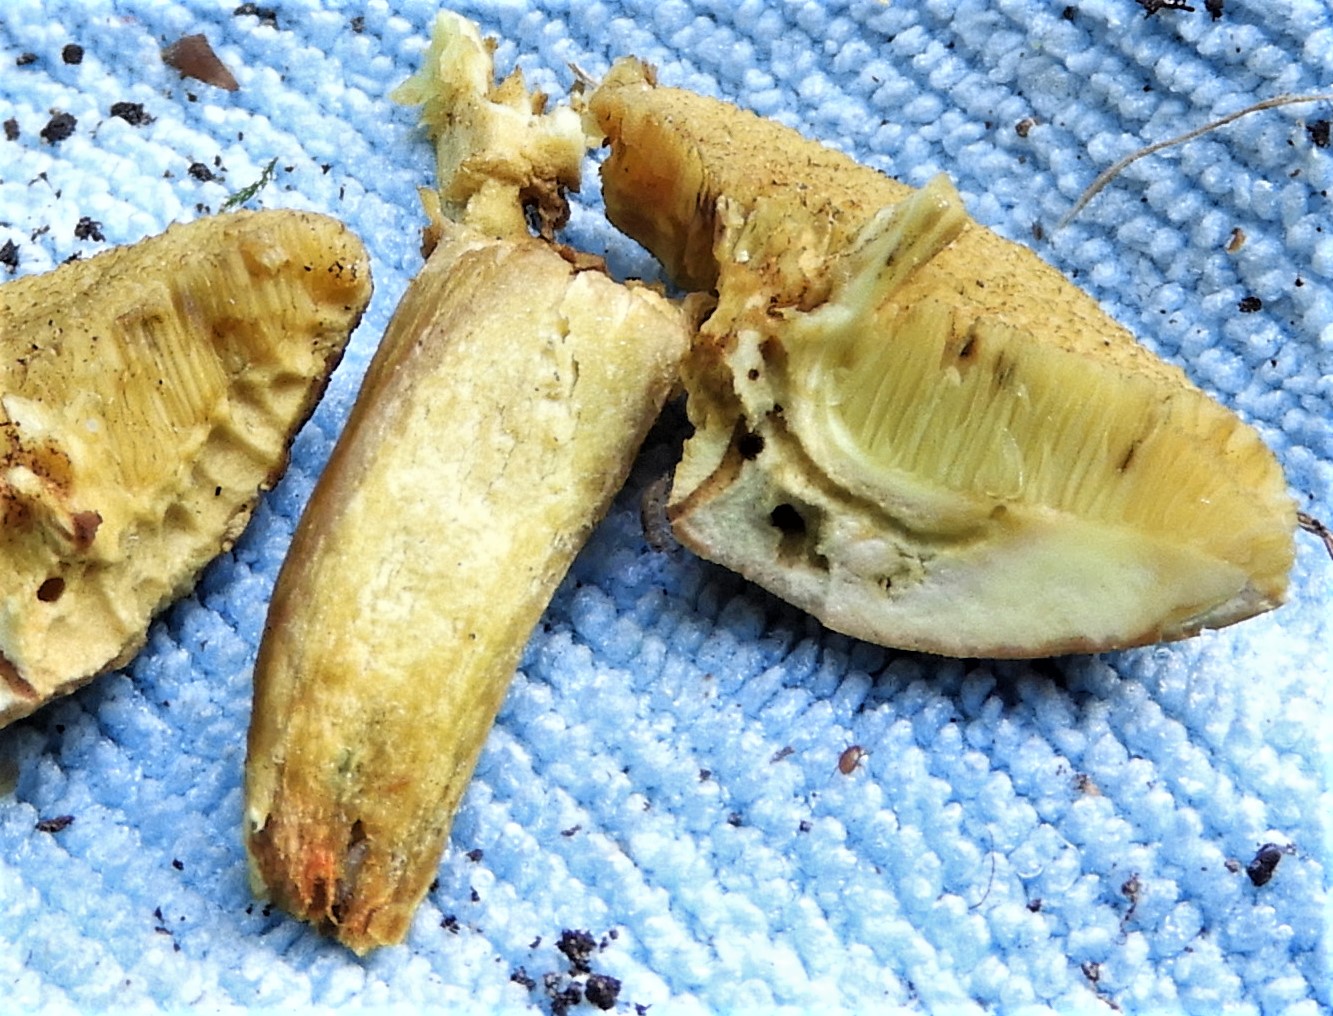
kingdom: Fungi
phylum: Basidiomycota
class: Agaricomycetes
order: Boletales
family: Boletaceae
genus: Hortiboletus
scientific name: Hortiboletus
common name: dværgrørhat
